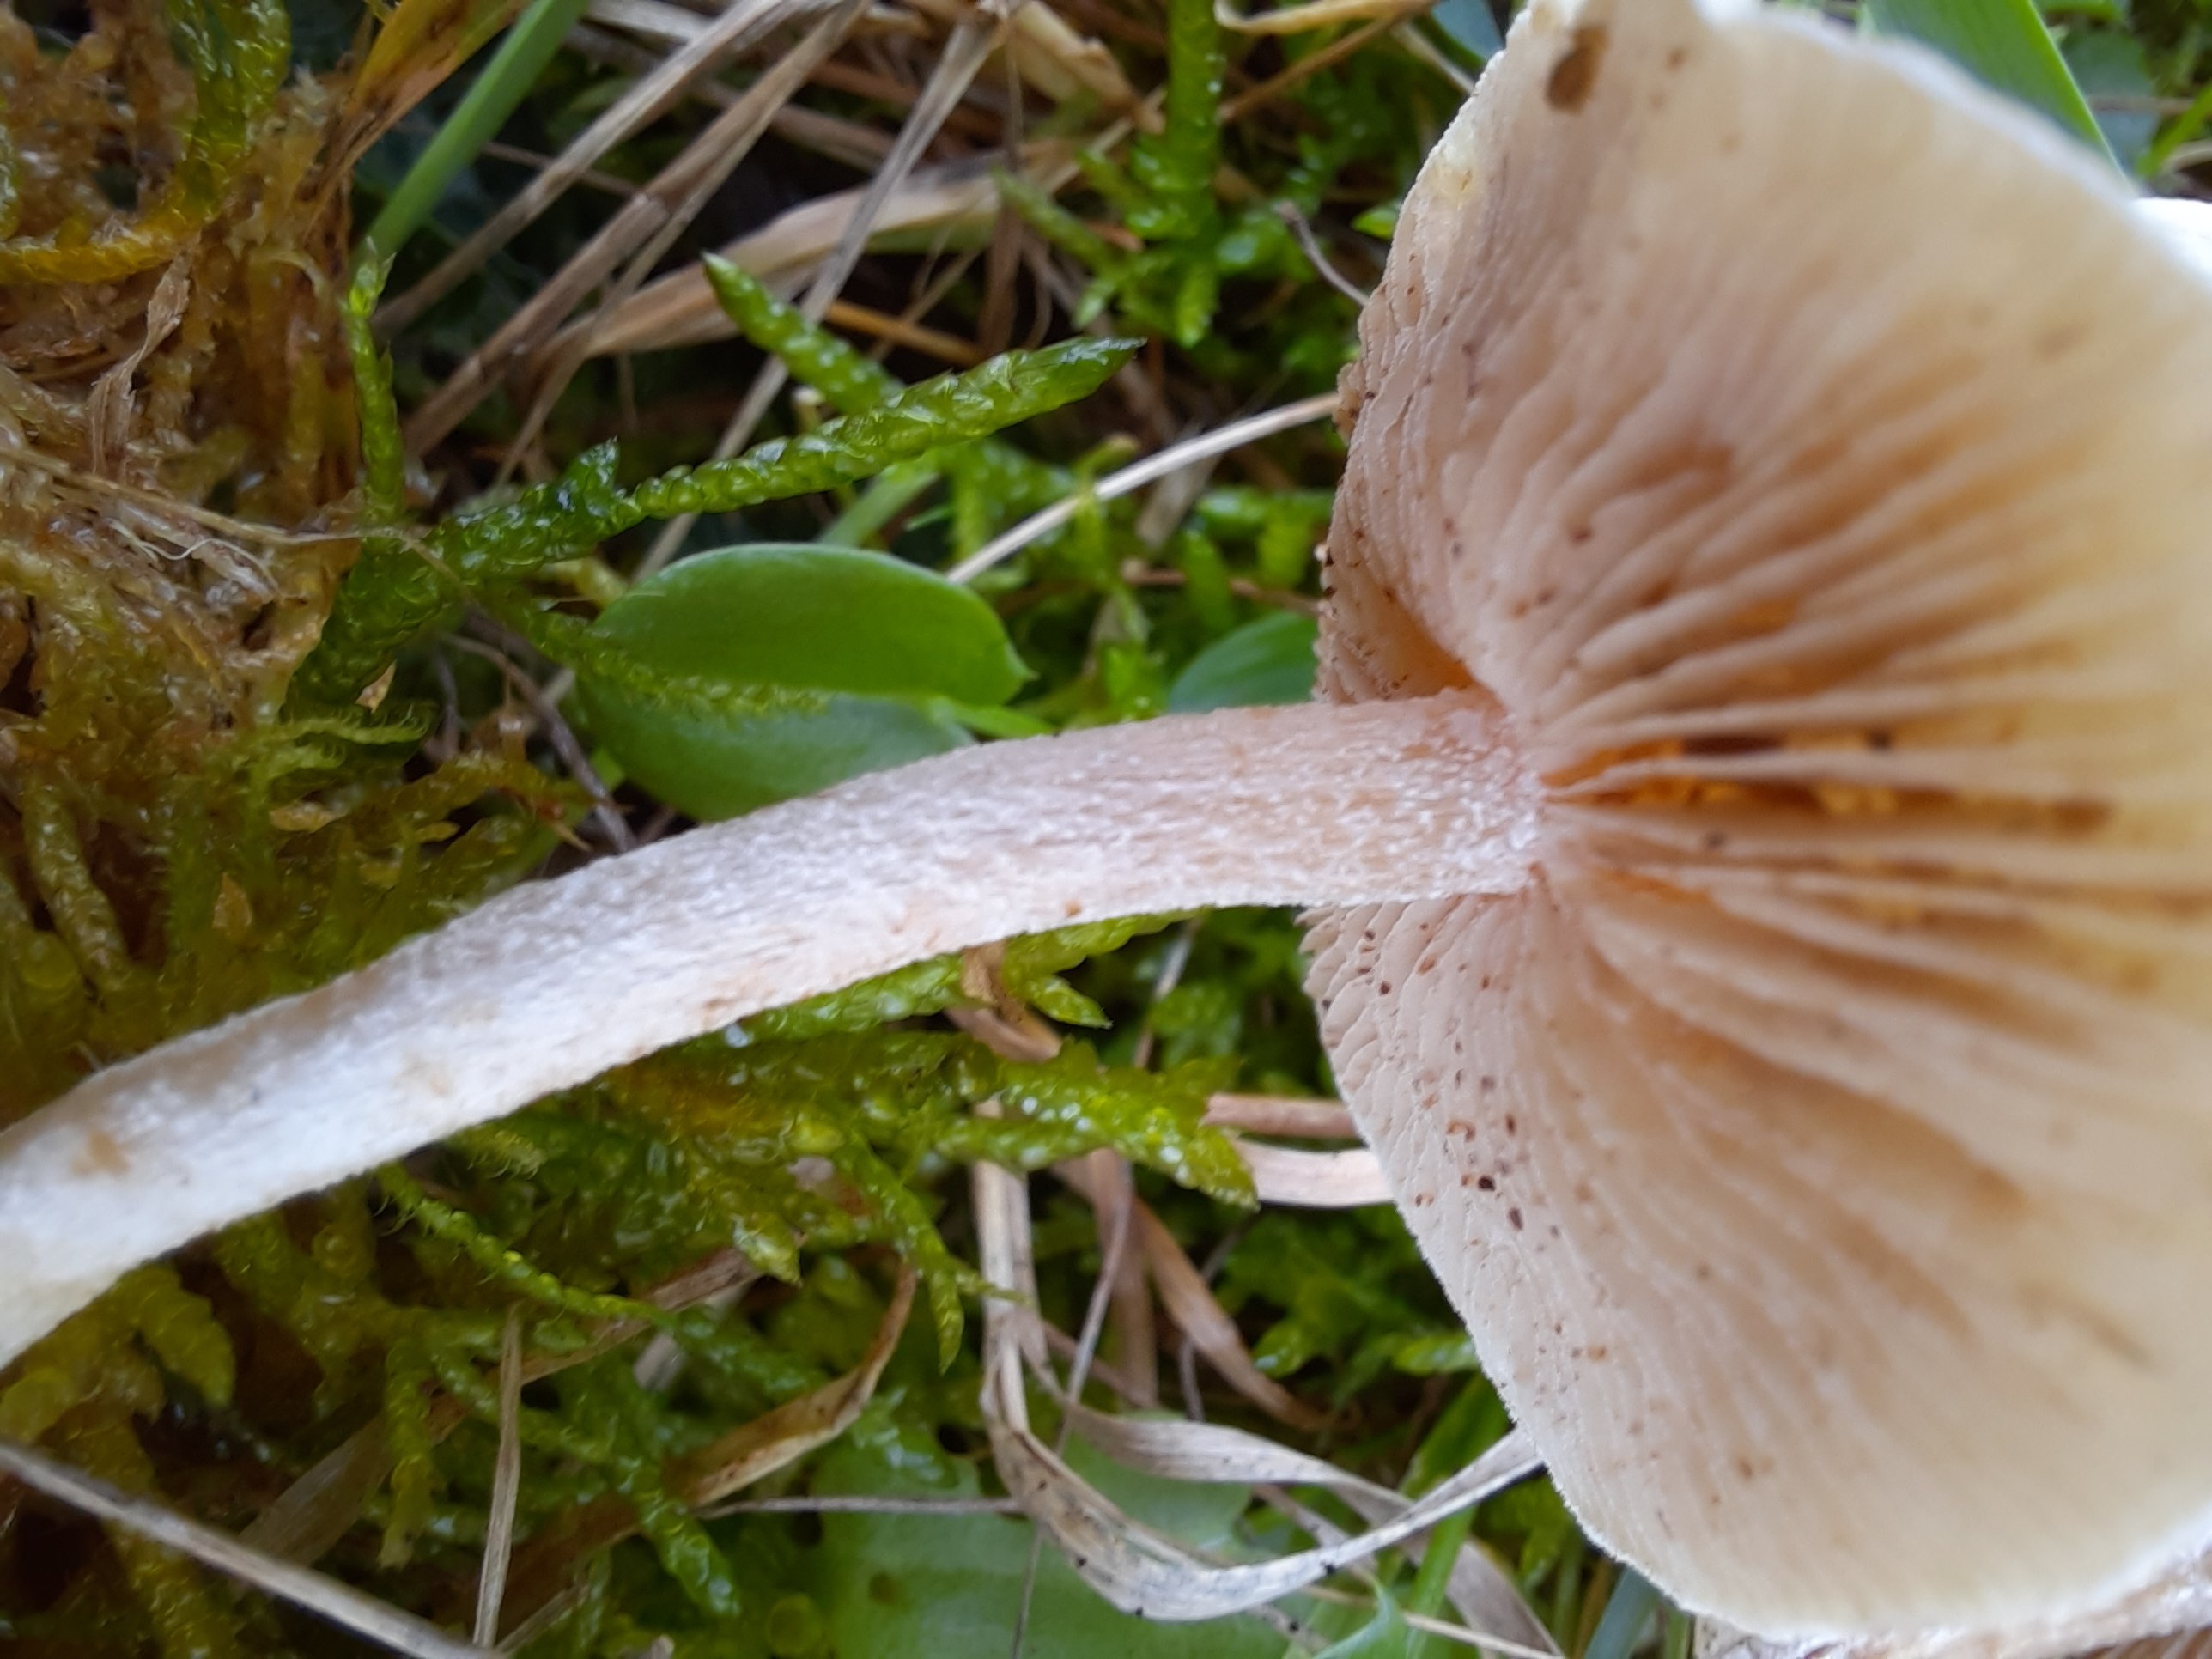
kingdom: Fungi
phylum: Basidiomycota
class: Agaricomycetes
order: Agaricales
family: Hymenogastraceae
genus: Hebeloma
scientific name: Hebeloma
